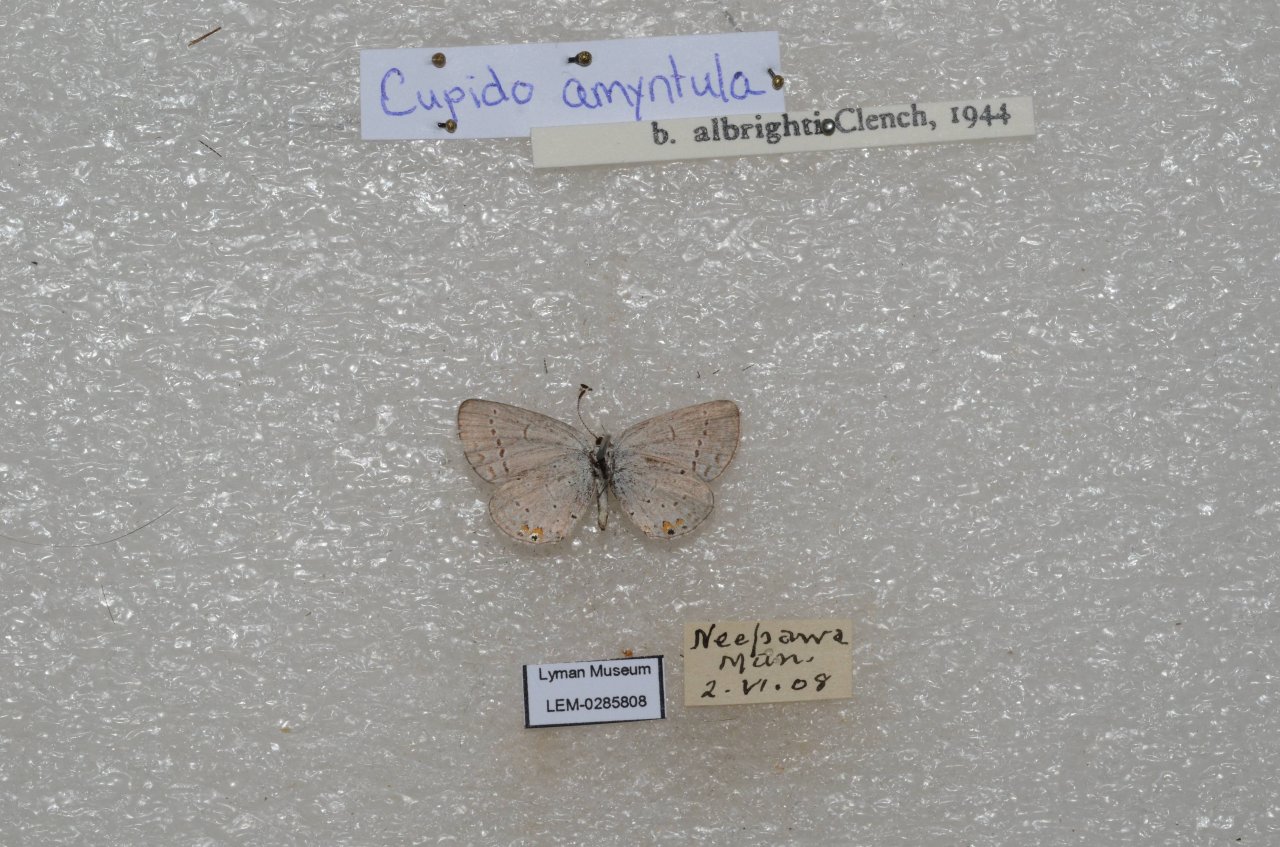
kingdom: Animalia
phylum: Arthropoda
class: Insecta
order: Lepidoptera
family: Lycaenidae
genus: Elkalyce
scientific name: Elkalyce comyntas
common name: Eastern Tailed-Blue
